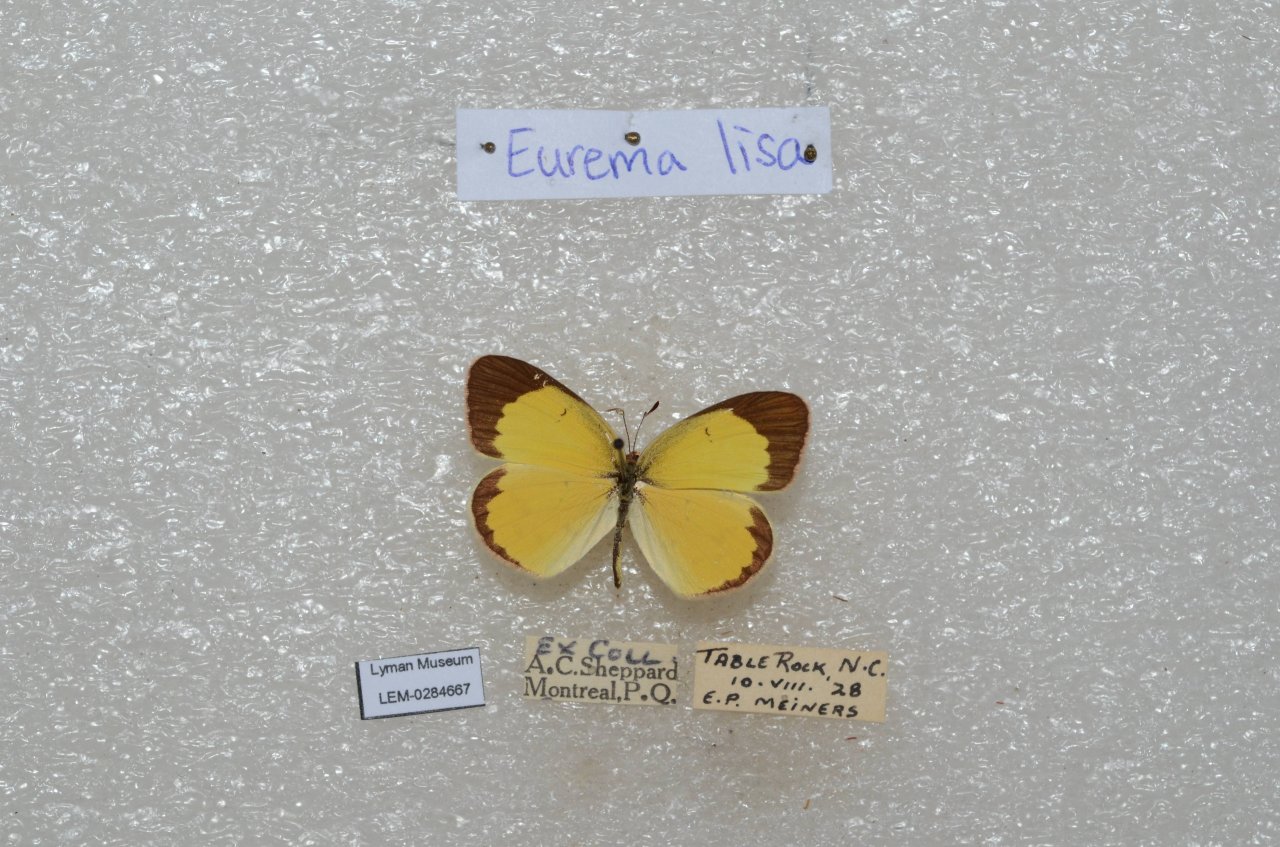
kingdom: Animalia
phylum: Arthropoda
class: Insecta
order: Lepidoptera
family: Pieridae
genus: Pyrisitia
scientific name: Pyrisitia lisa
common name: Little Yellow
